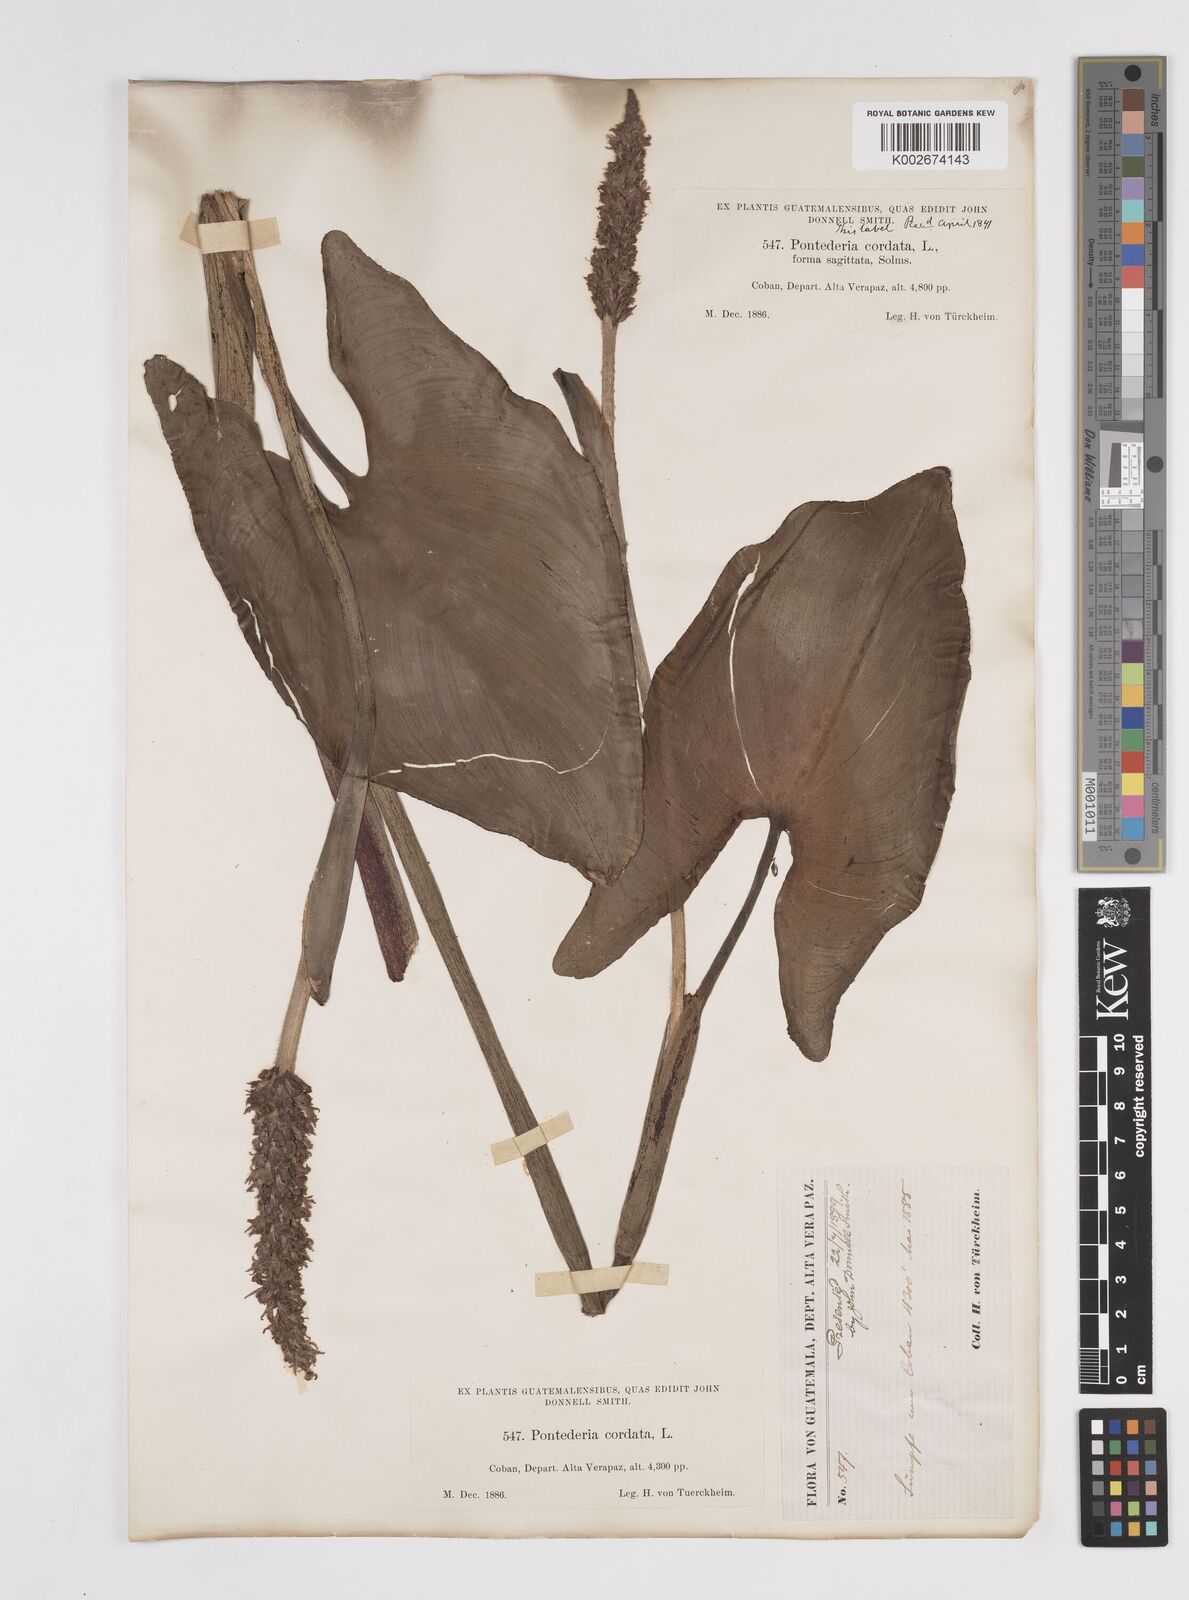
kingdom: Plantae
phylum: Tracheophyta
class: Liliopsida
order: Commelinales
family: Pontederiaceae
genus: Pontederia
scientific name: Pontederia sagittata
